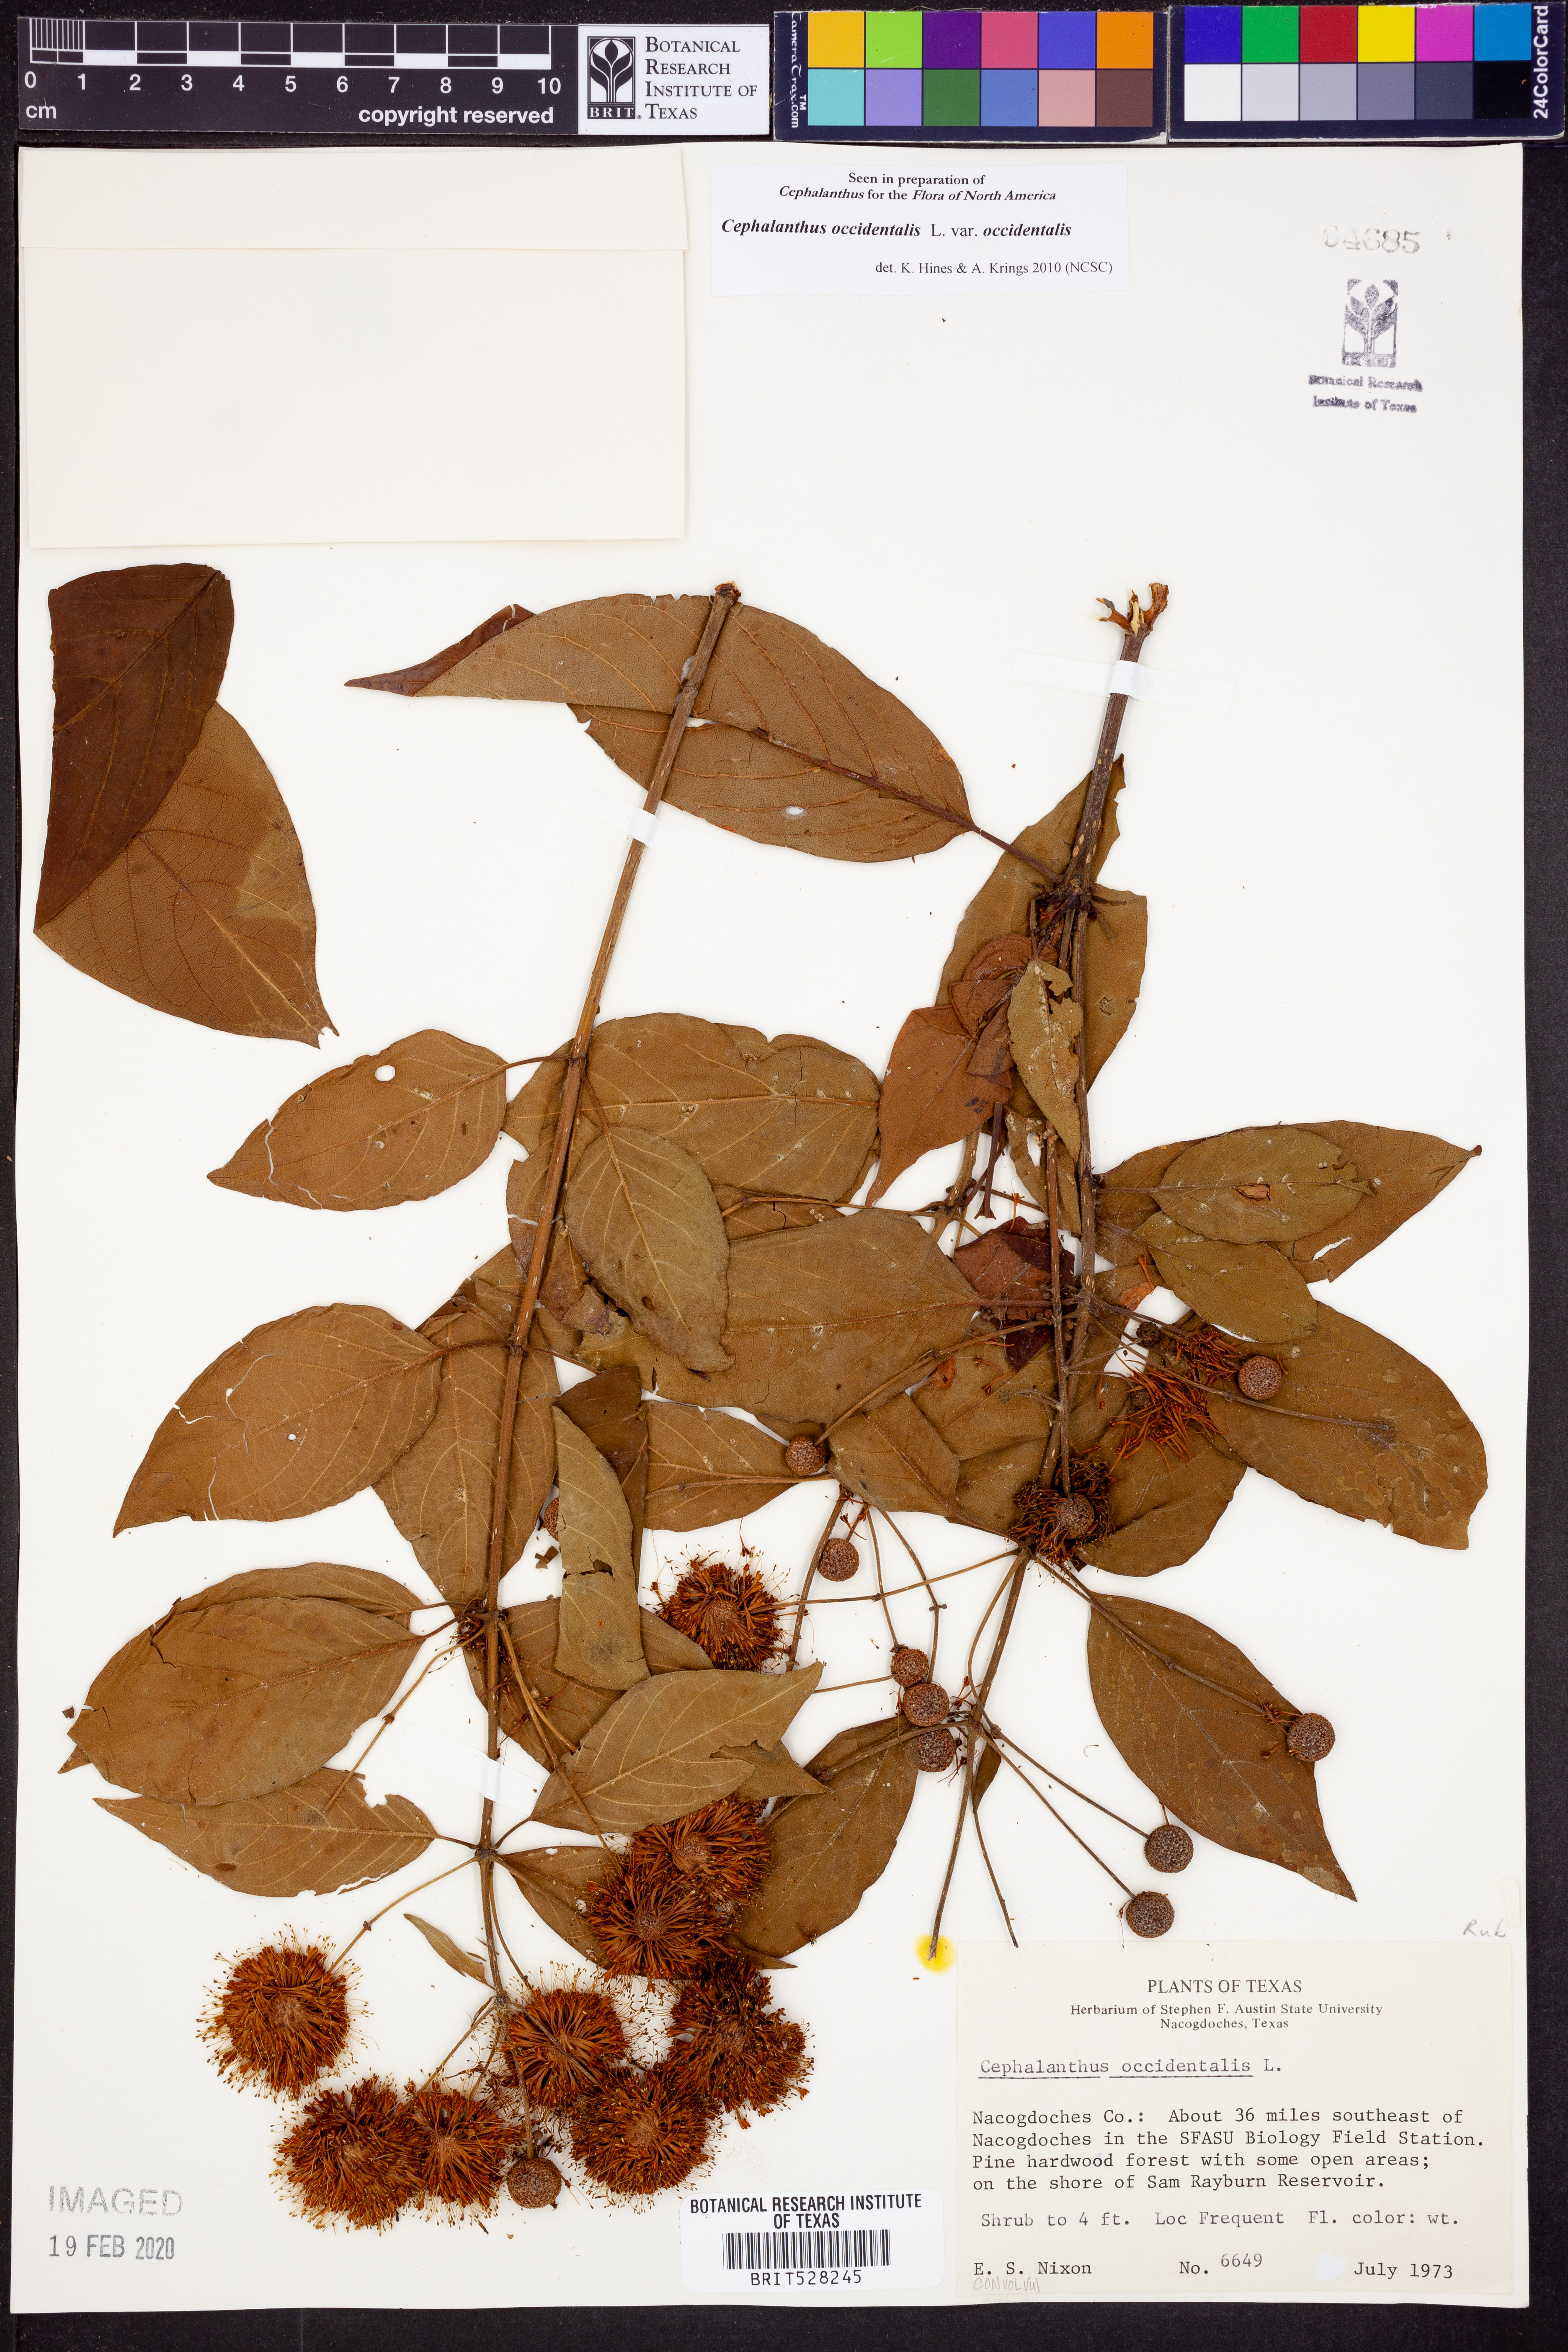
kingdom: Plantae
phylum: Tracheophyta
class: Magnoliopsida
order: Gentianales
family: Rubiaceae
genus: Cephalanthus
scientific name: Cephalanthus occidentalis
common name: Button-willow
